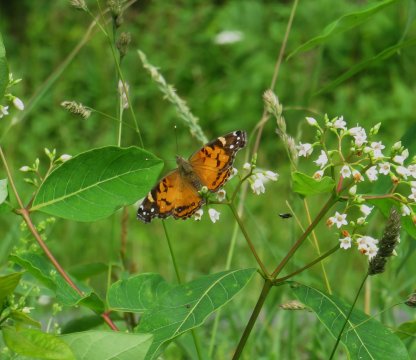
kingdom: Animalia
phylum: Arthropoda
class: Insecta
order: Lepidoptera
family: Nymphalidae
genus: Vanessa
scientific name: Vanessa virginiensis
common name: American Lady
